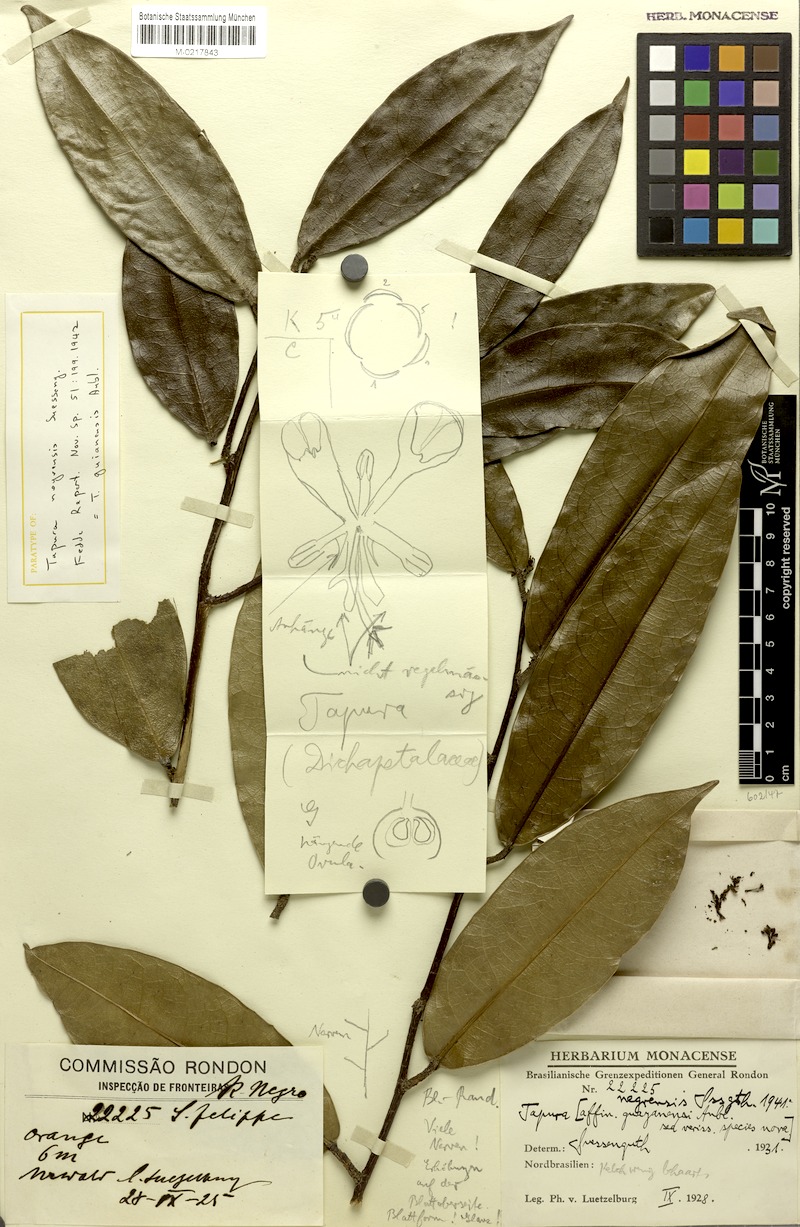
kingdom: Plantae
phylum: Tracheophyta
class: Magnoliopsida
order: Malpighiales
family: Dichapetalaceae
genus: Tapura
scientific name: Tapura guianensis
